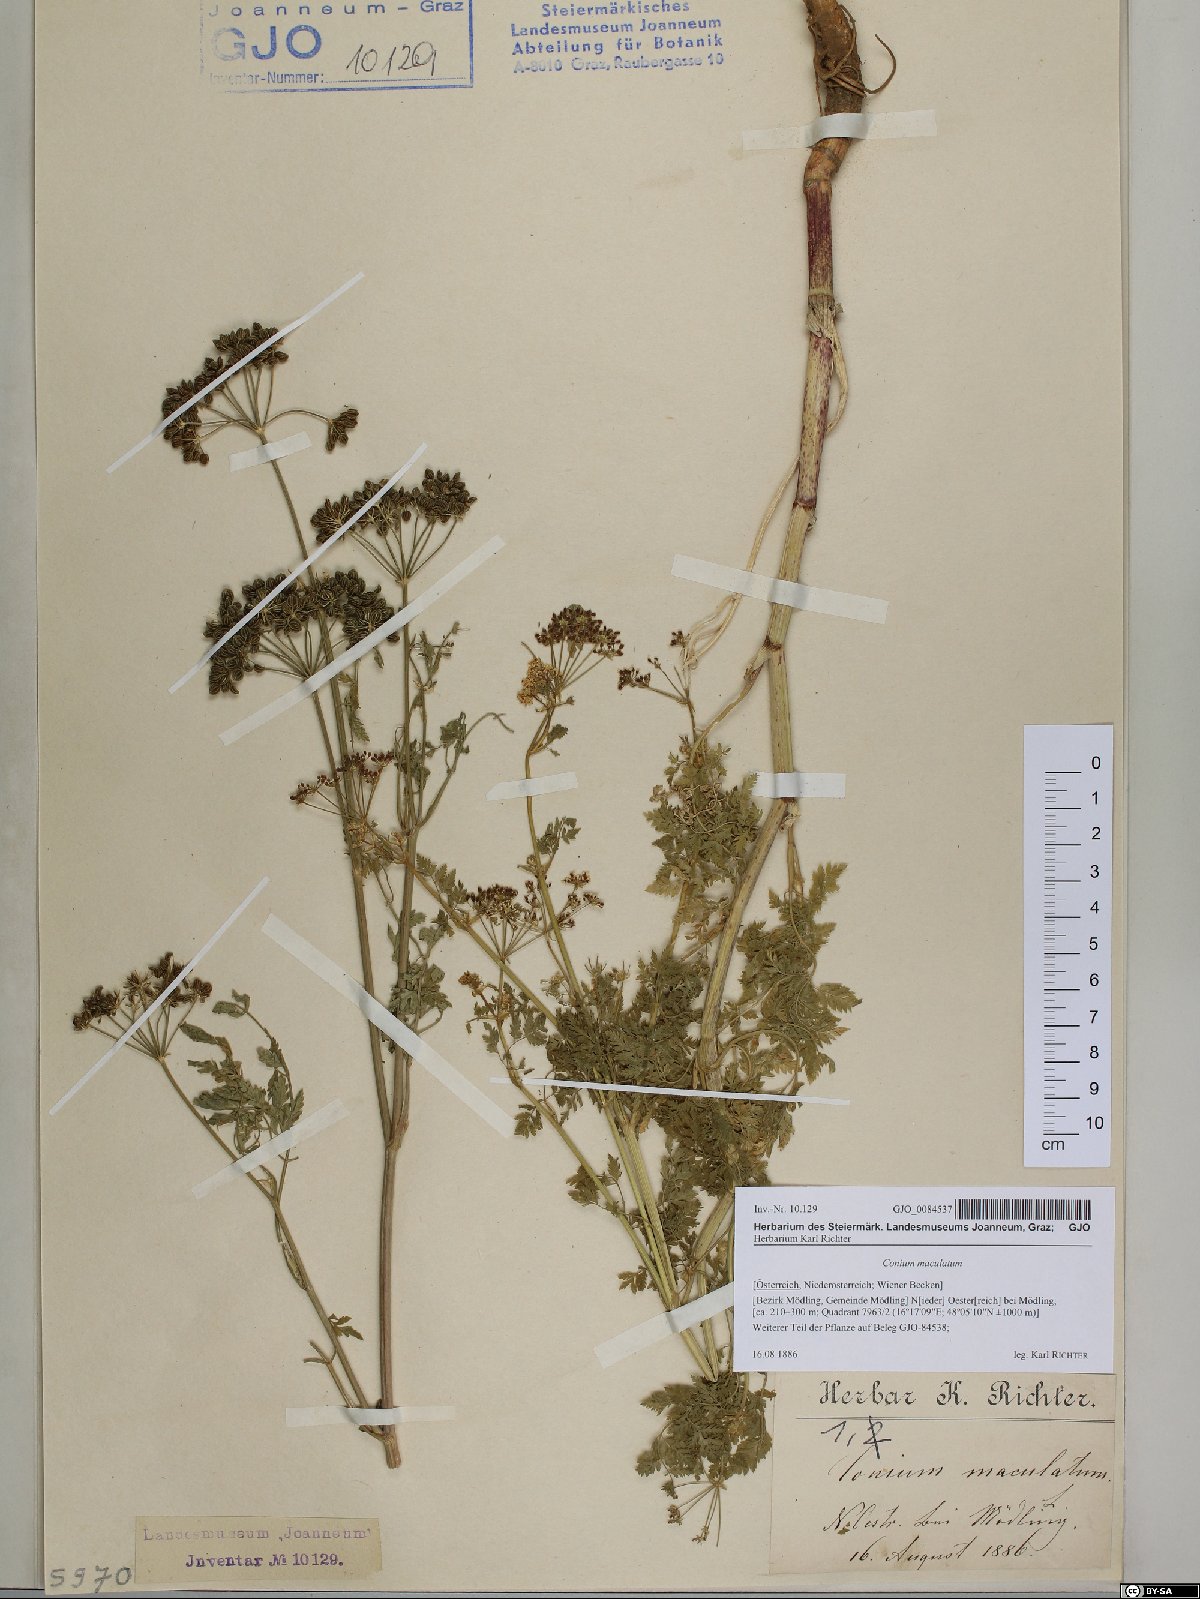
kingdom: Plantae
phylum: Tracheophyta
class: Magnoliopsida
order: Apiales
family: Apiaceae
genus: Conium
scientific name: Conium maculatum
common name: Hemlock
